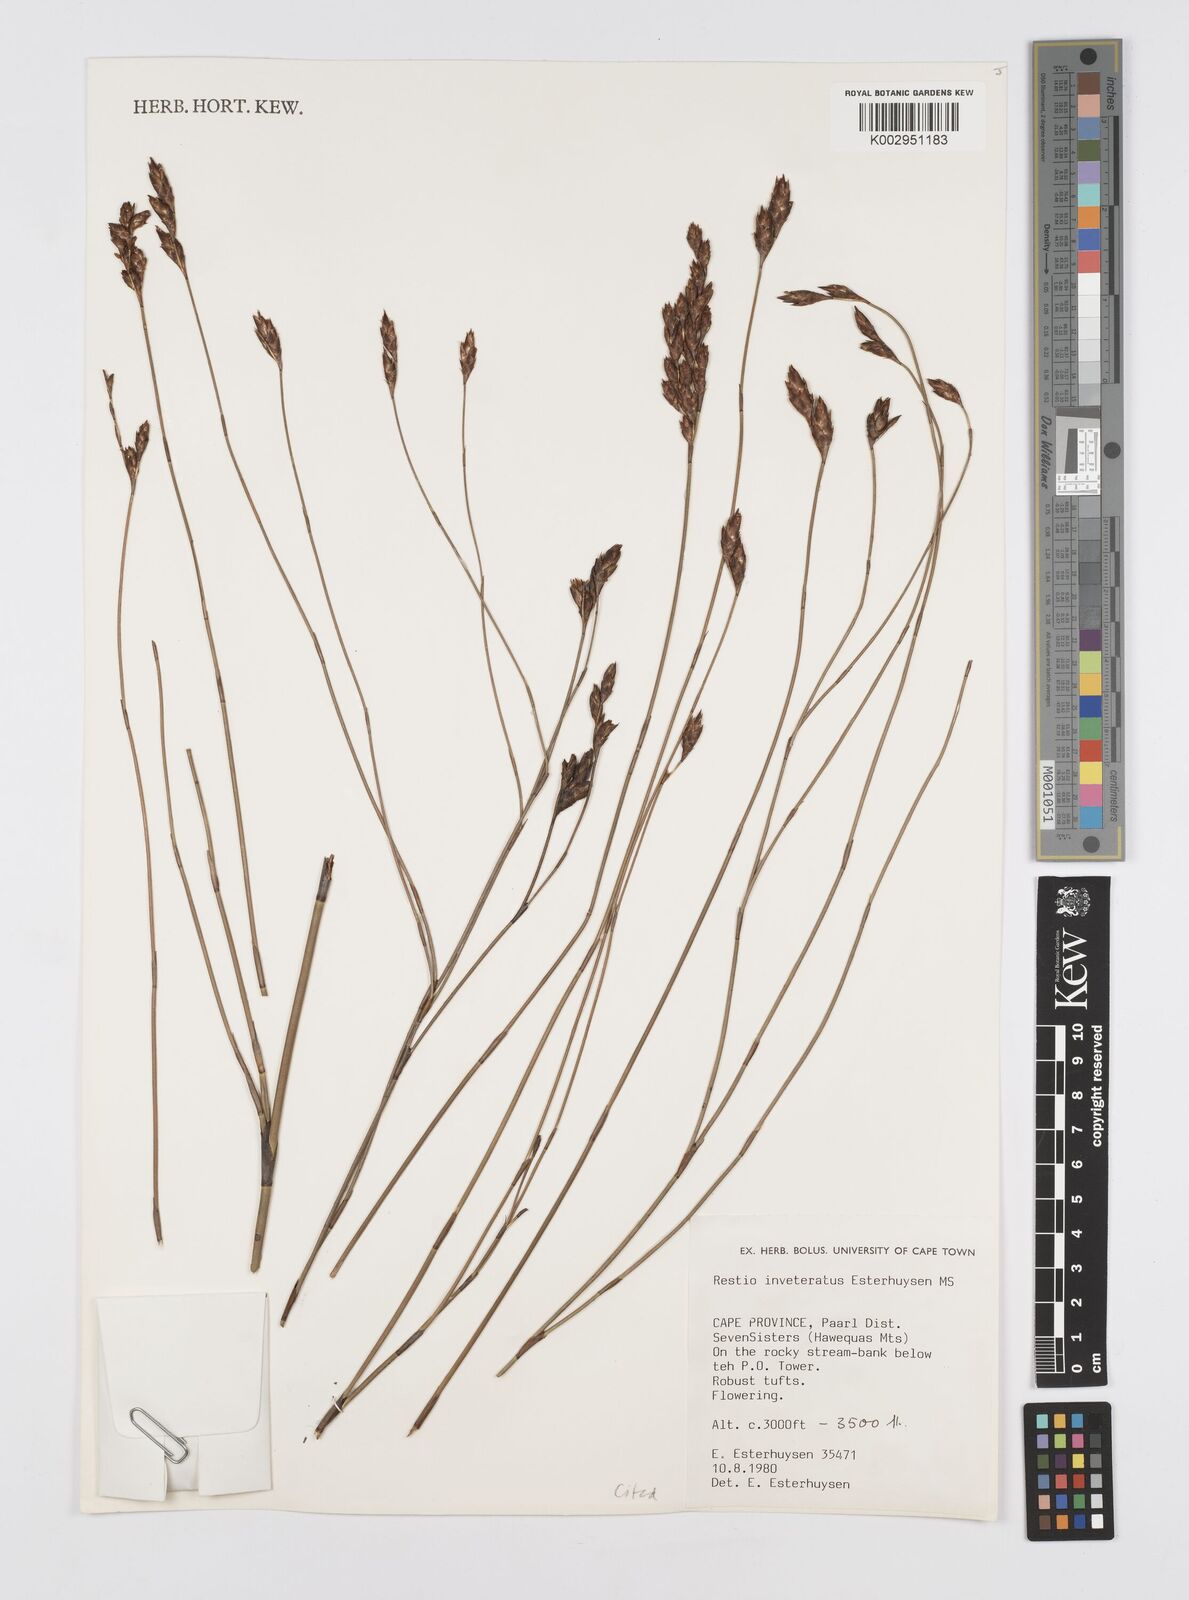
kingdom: Plantae
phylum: Tracheophyta
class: Liliopsida
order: Poales
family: Restionaceae
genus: Restio
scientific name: Restio inveteratus
